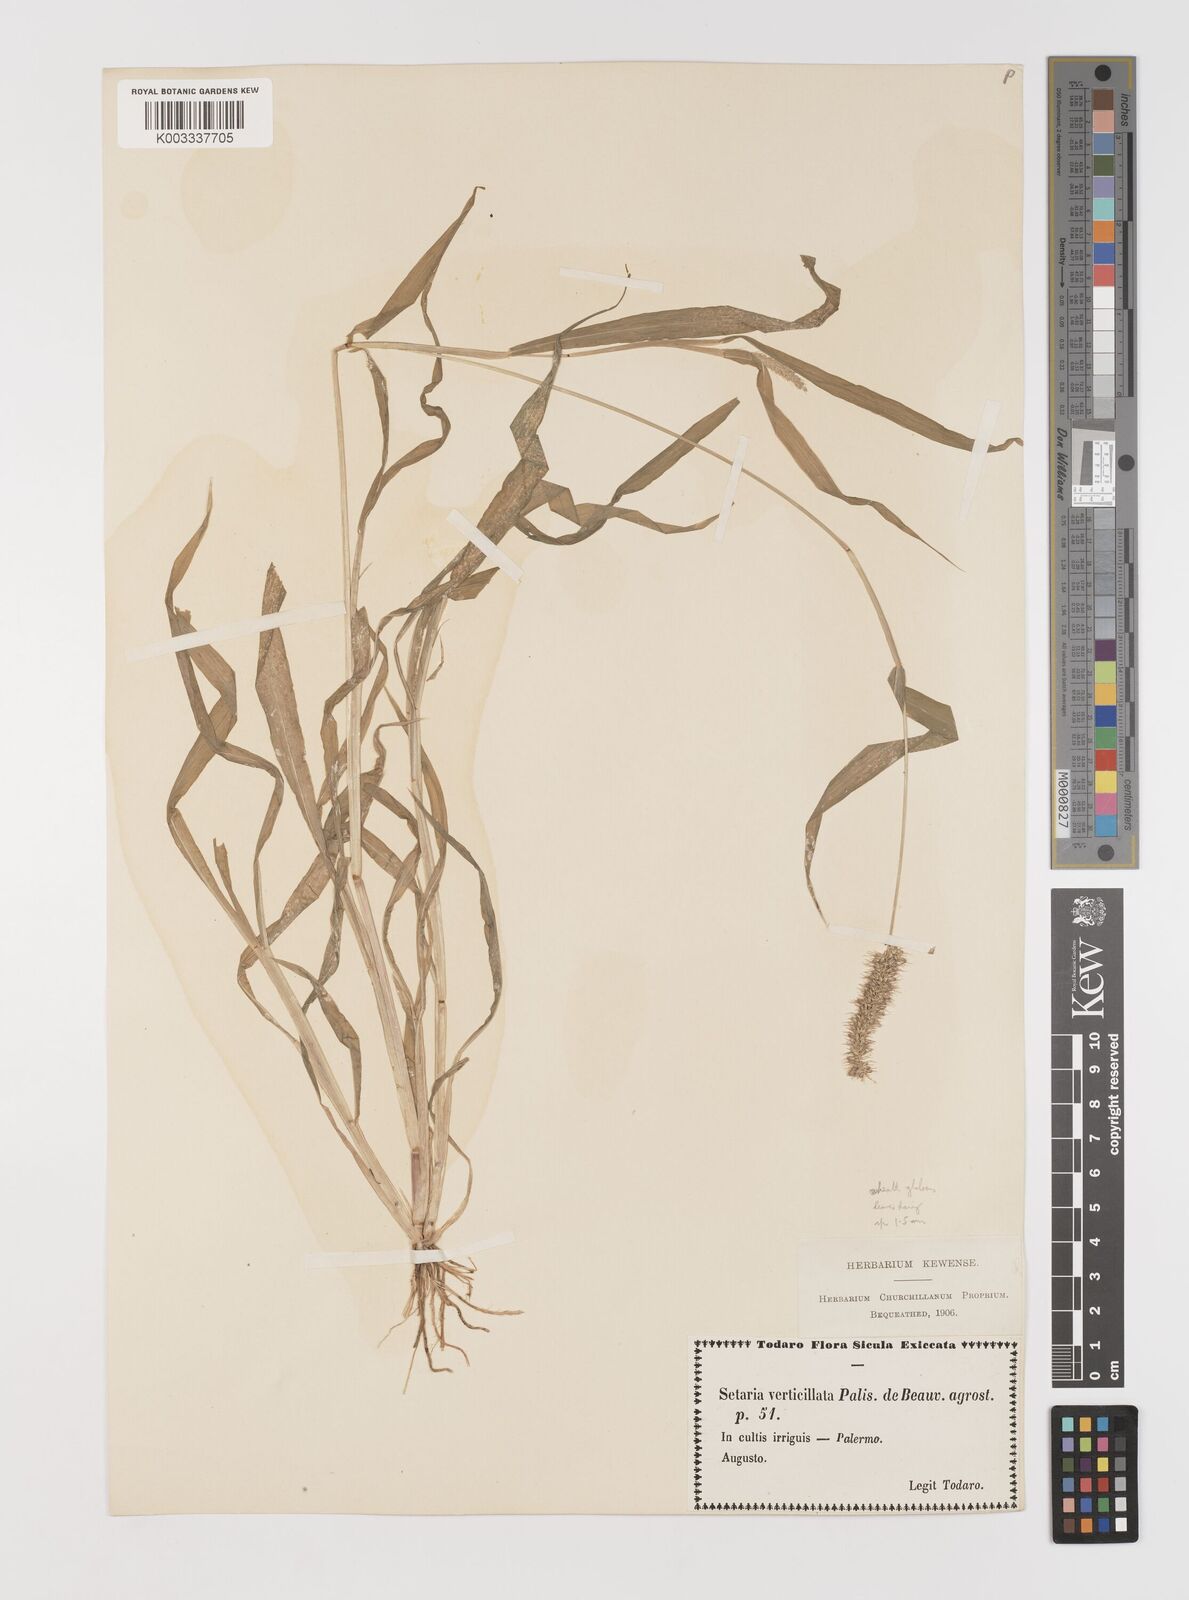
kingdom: Plantae
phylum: Tracheophyta
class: Liliopsida
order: Poales
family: Poaceae
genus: Setaria
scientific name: Setaria verticillata
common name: Hooked bristlegrass
